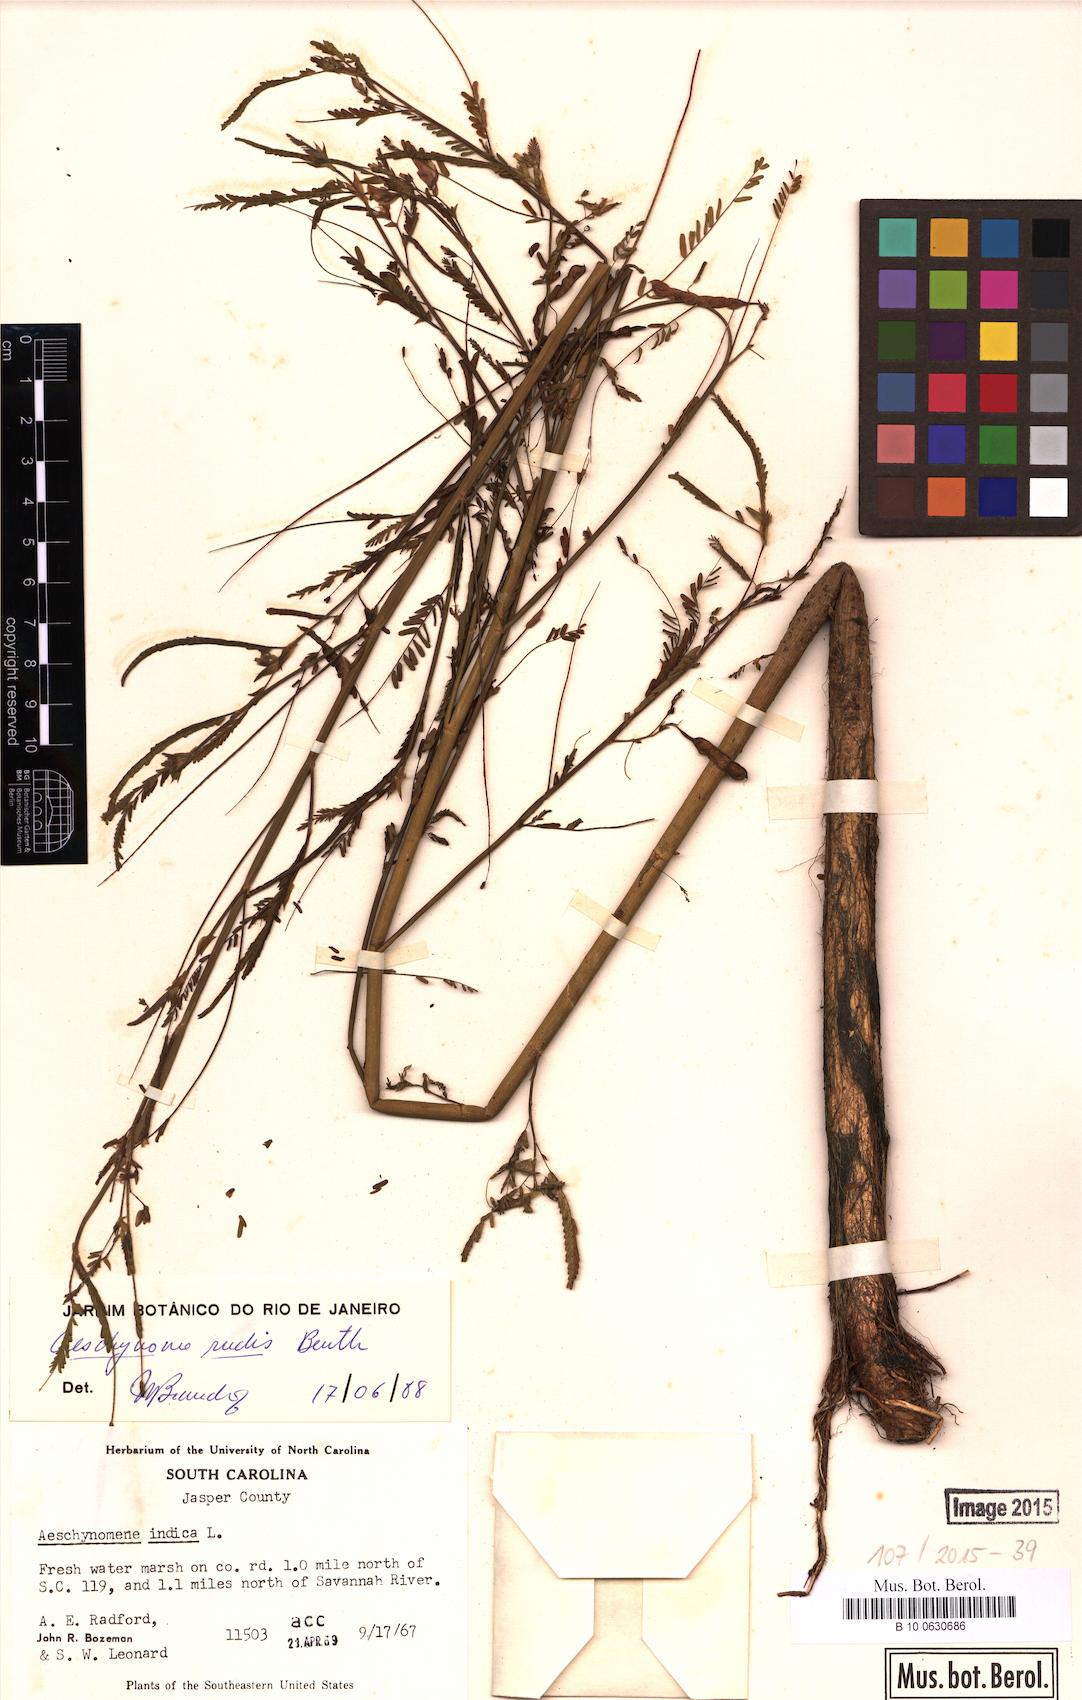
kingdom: Plantae
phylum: Tracheophyta
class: Magnoliopsida
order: Fabales
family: Fabaceae
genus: Aeschynomene
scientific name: Aeschynomene rudis
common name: Rough joint-vetch
